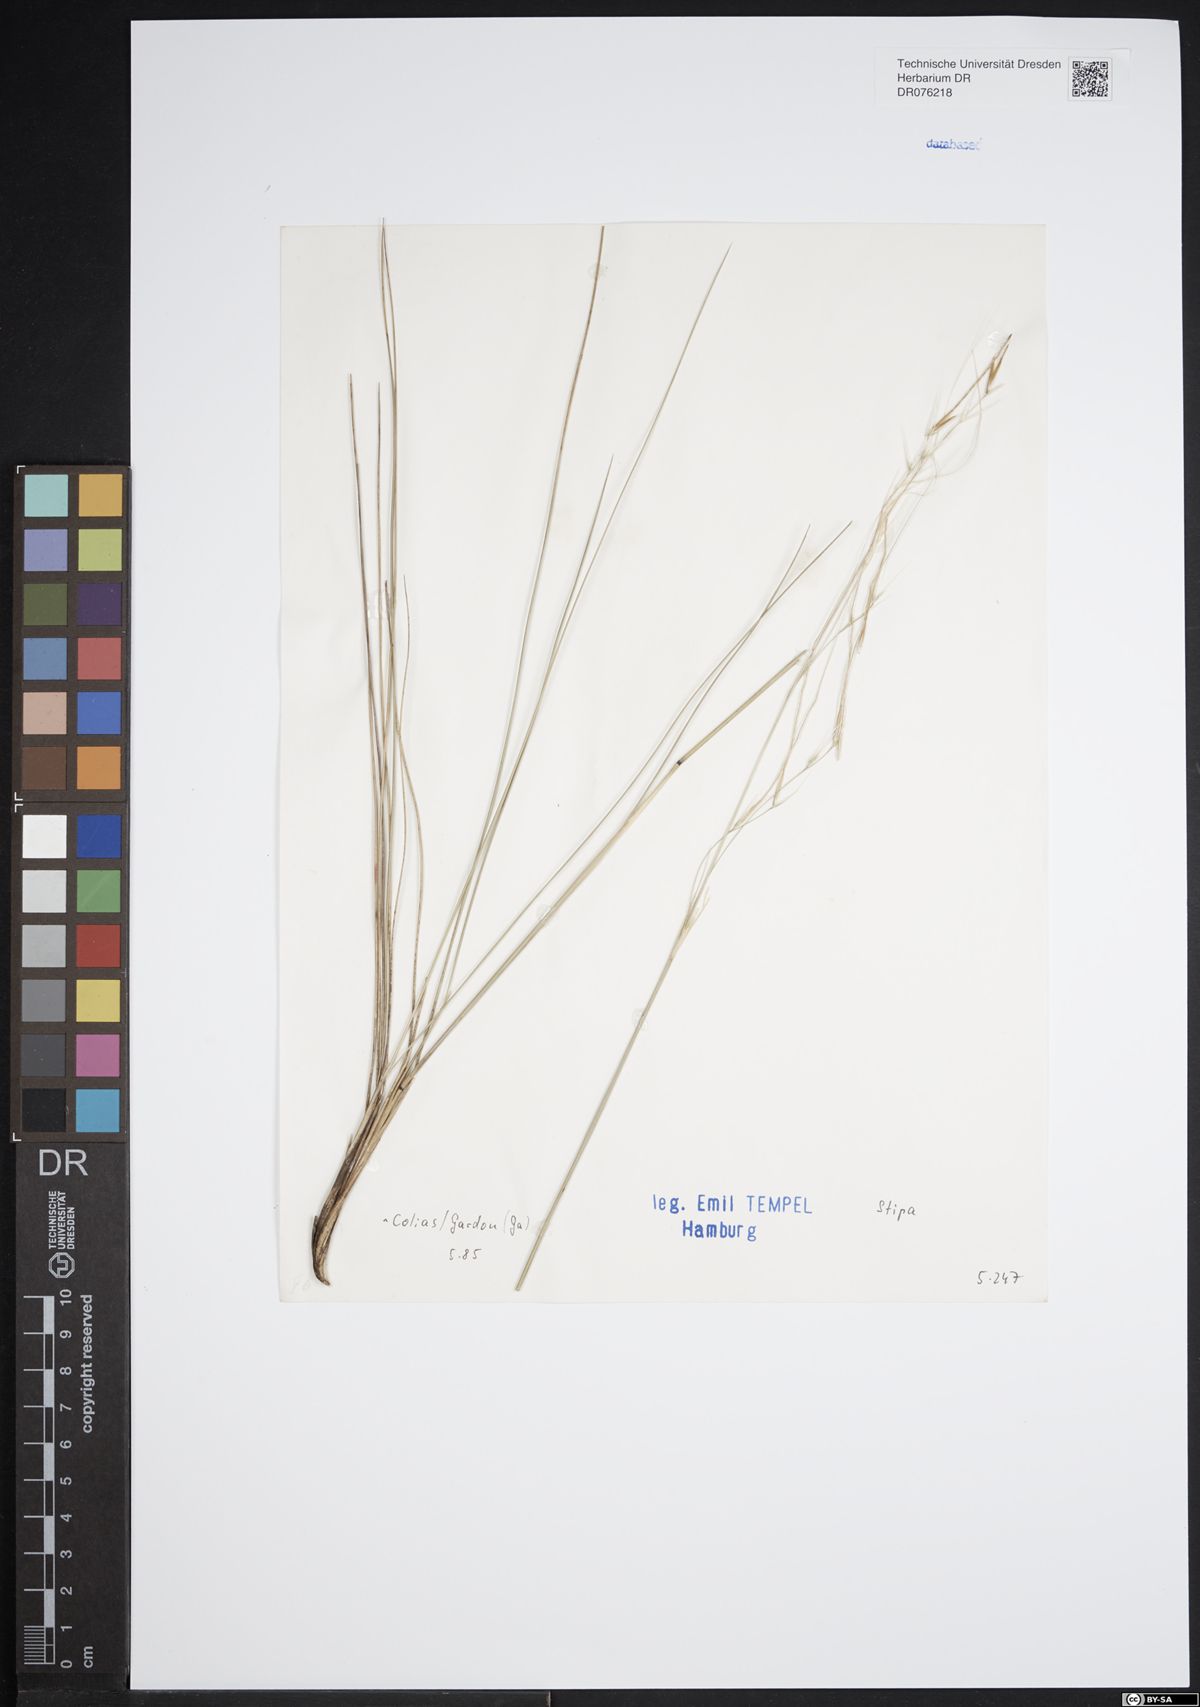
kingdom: Plantae
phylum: Tracheophyta
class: Liliopsida
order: Poales
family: Poaceae
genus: Stipa
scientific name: Stipa
